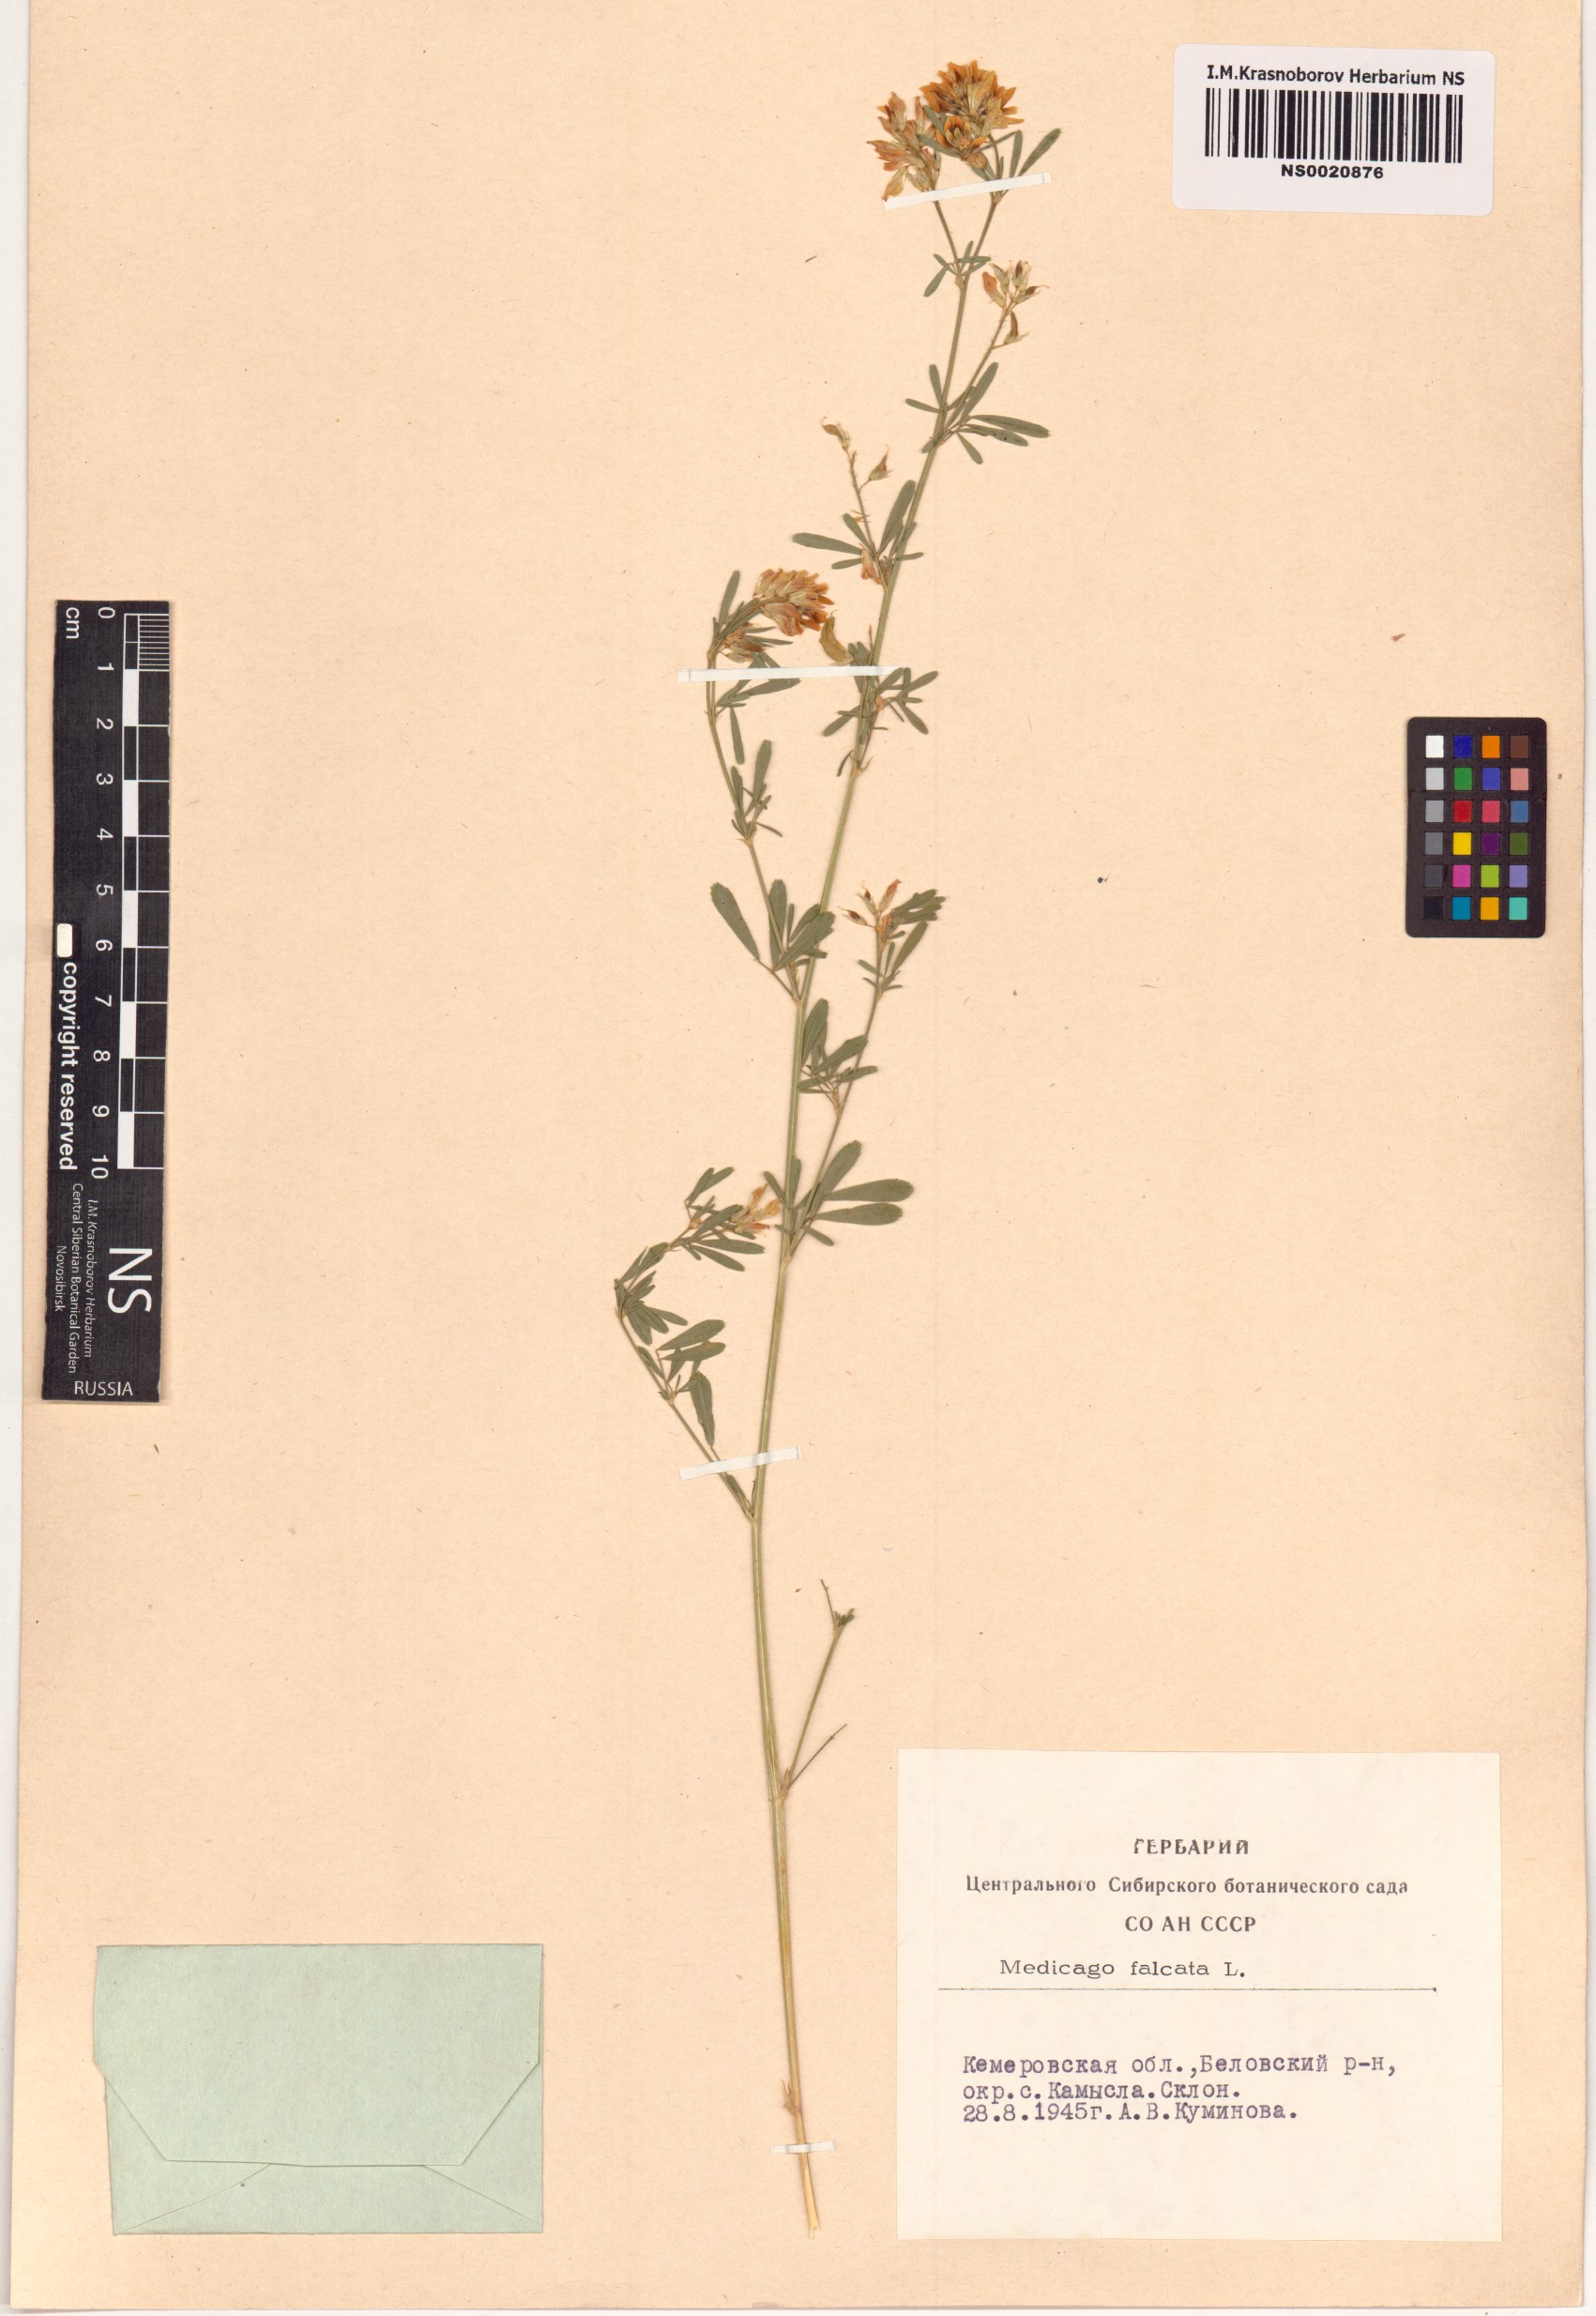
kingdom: Plantae
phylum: Tracheophyta
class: Magnoliopsida
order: Fabales
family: Fabaceae
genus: Medicago
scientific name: Medicago falcata
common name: Sickle medick
